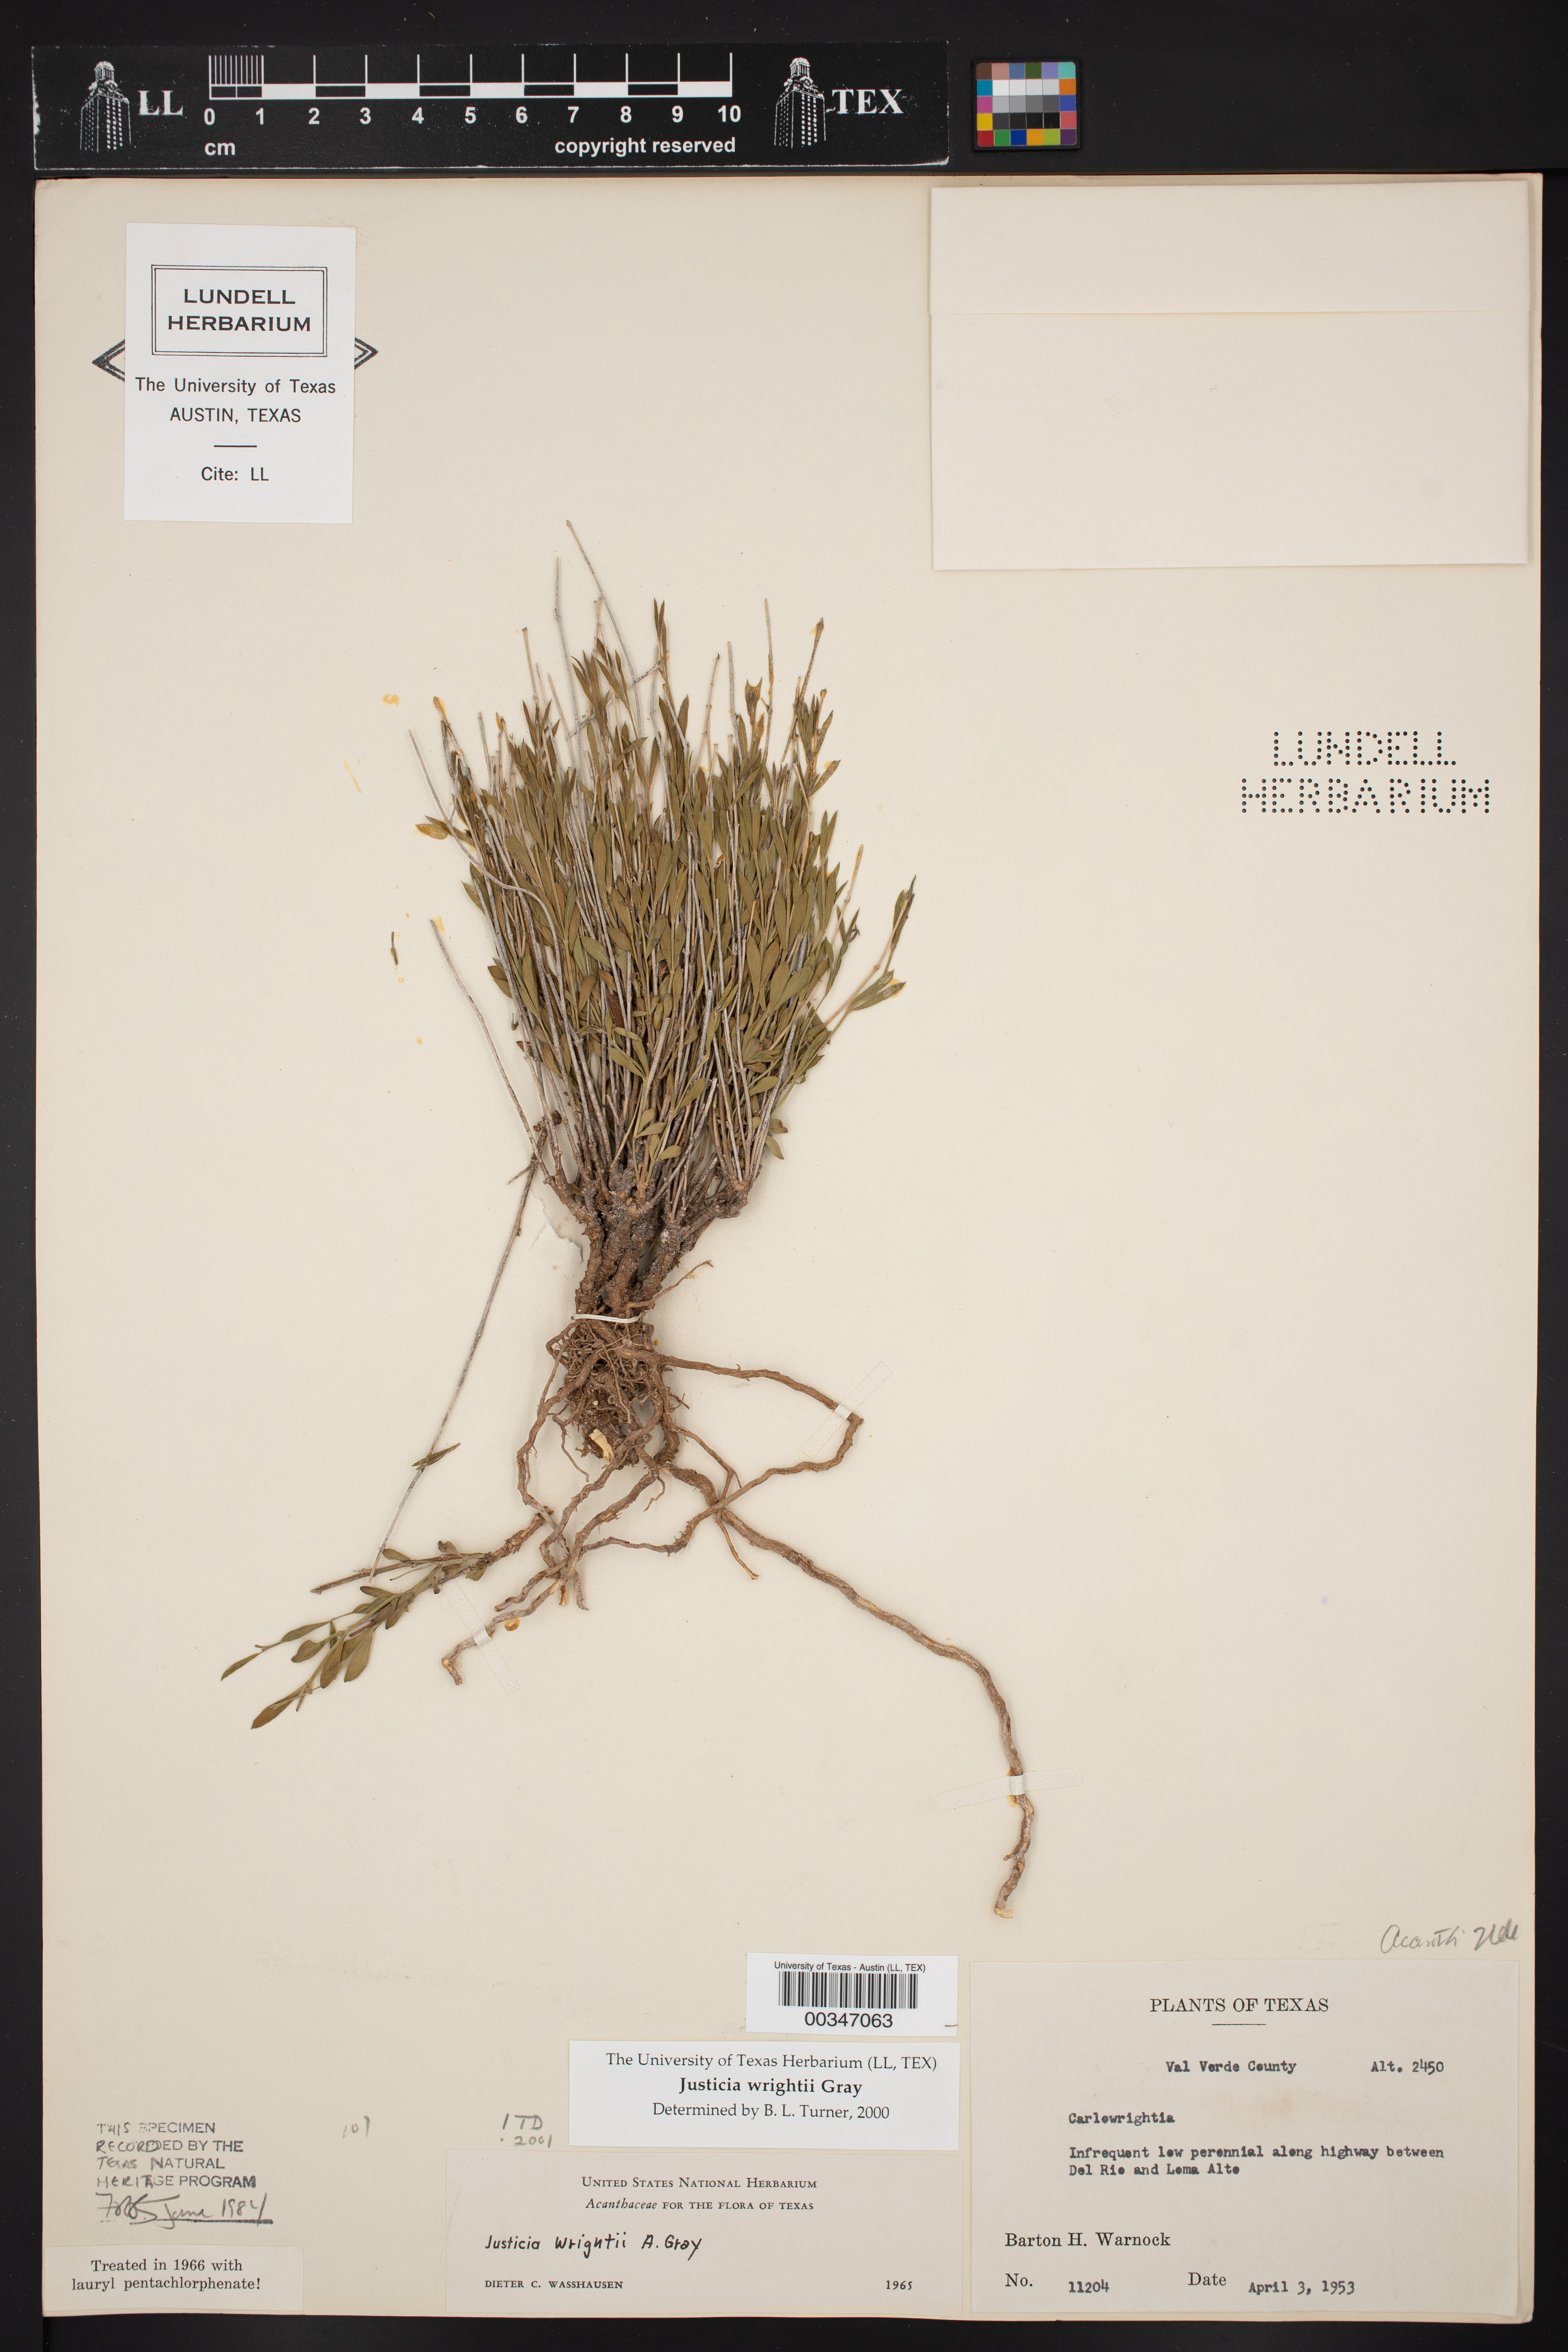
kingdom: Plantae
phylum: Tracheophyta
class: Magnoliopsida
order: Lamiales
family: Acanthaceae
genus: Justicia
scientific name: Justicia wrightii
